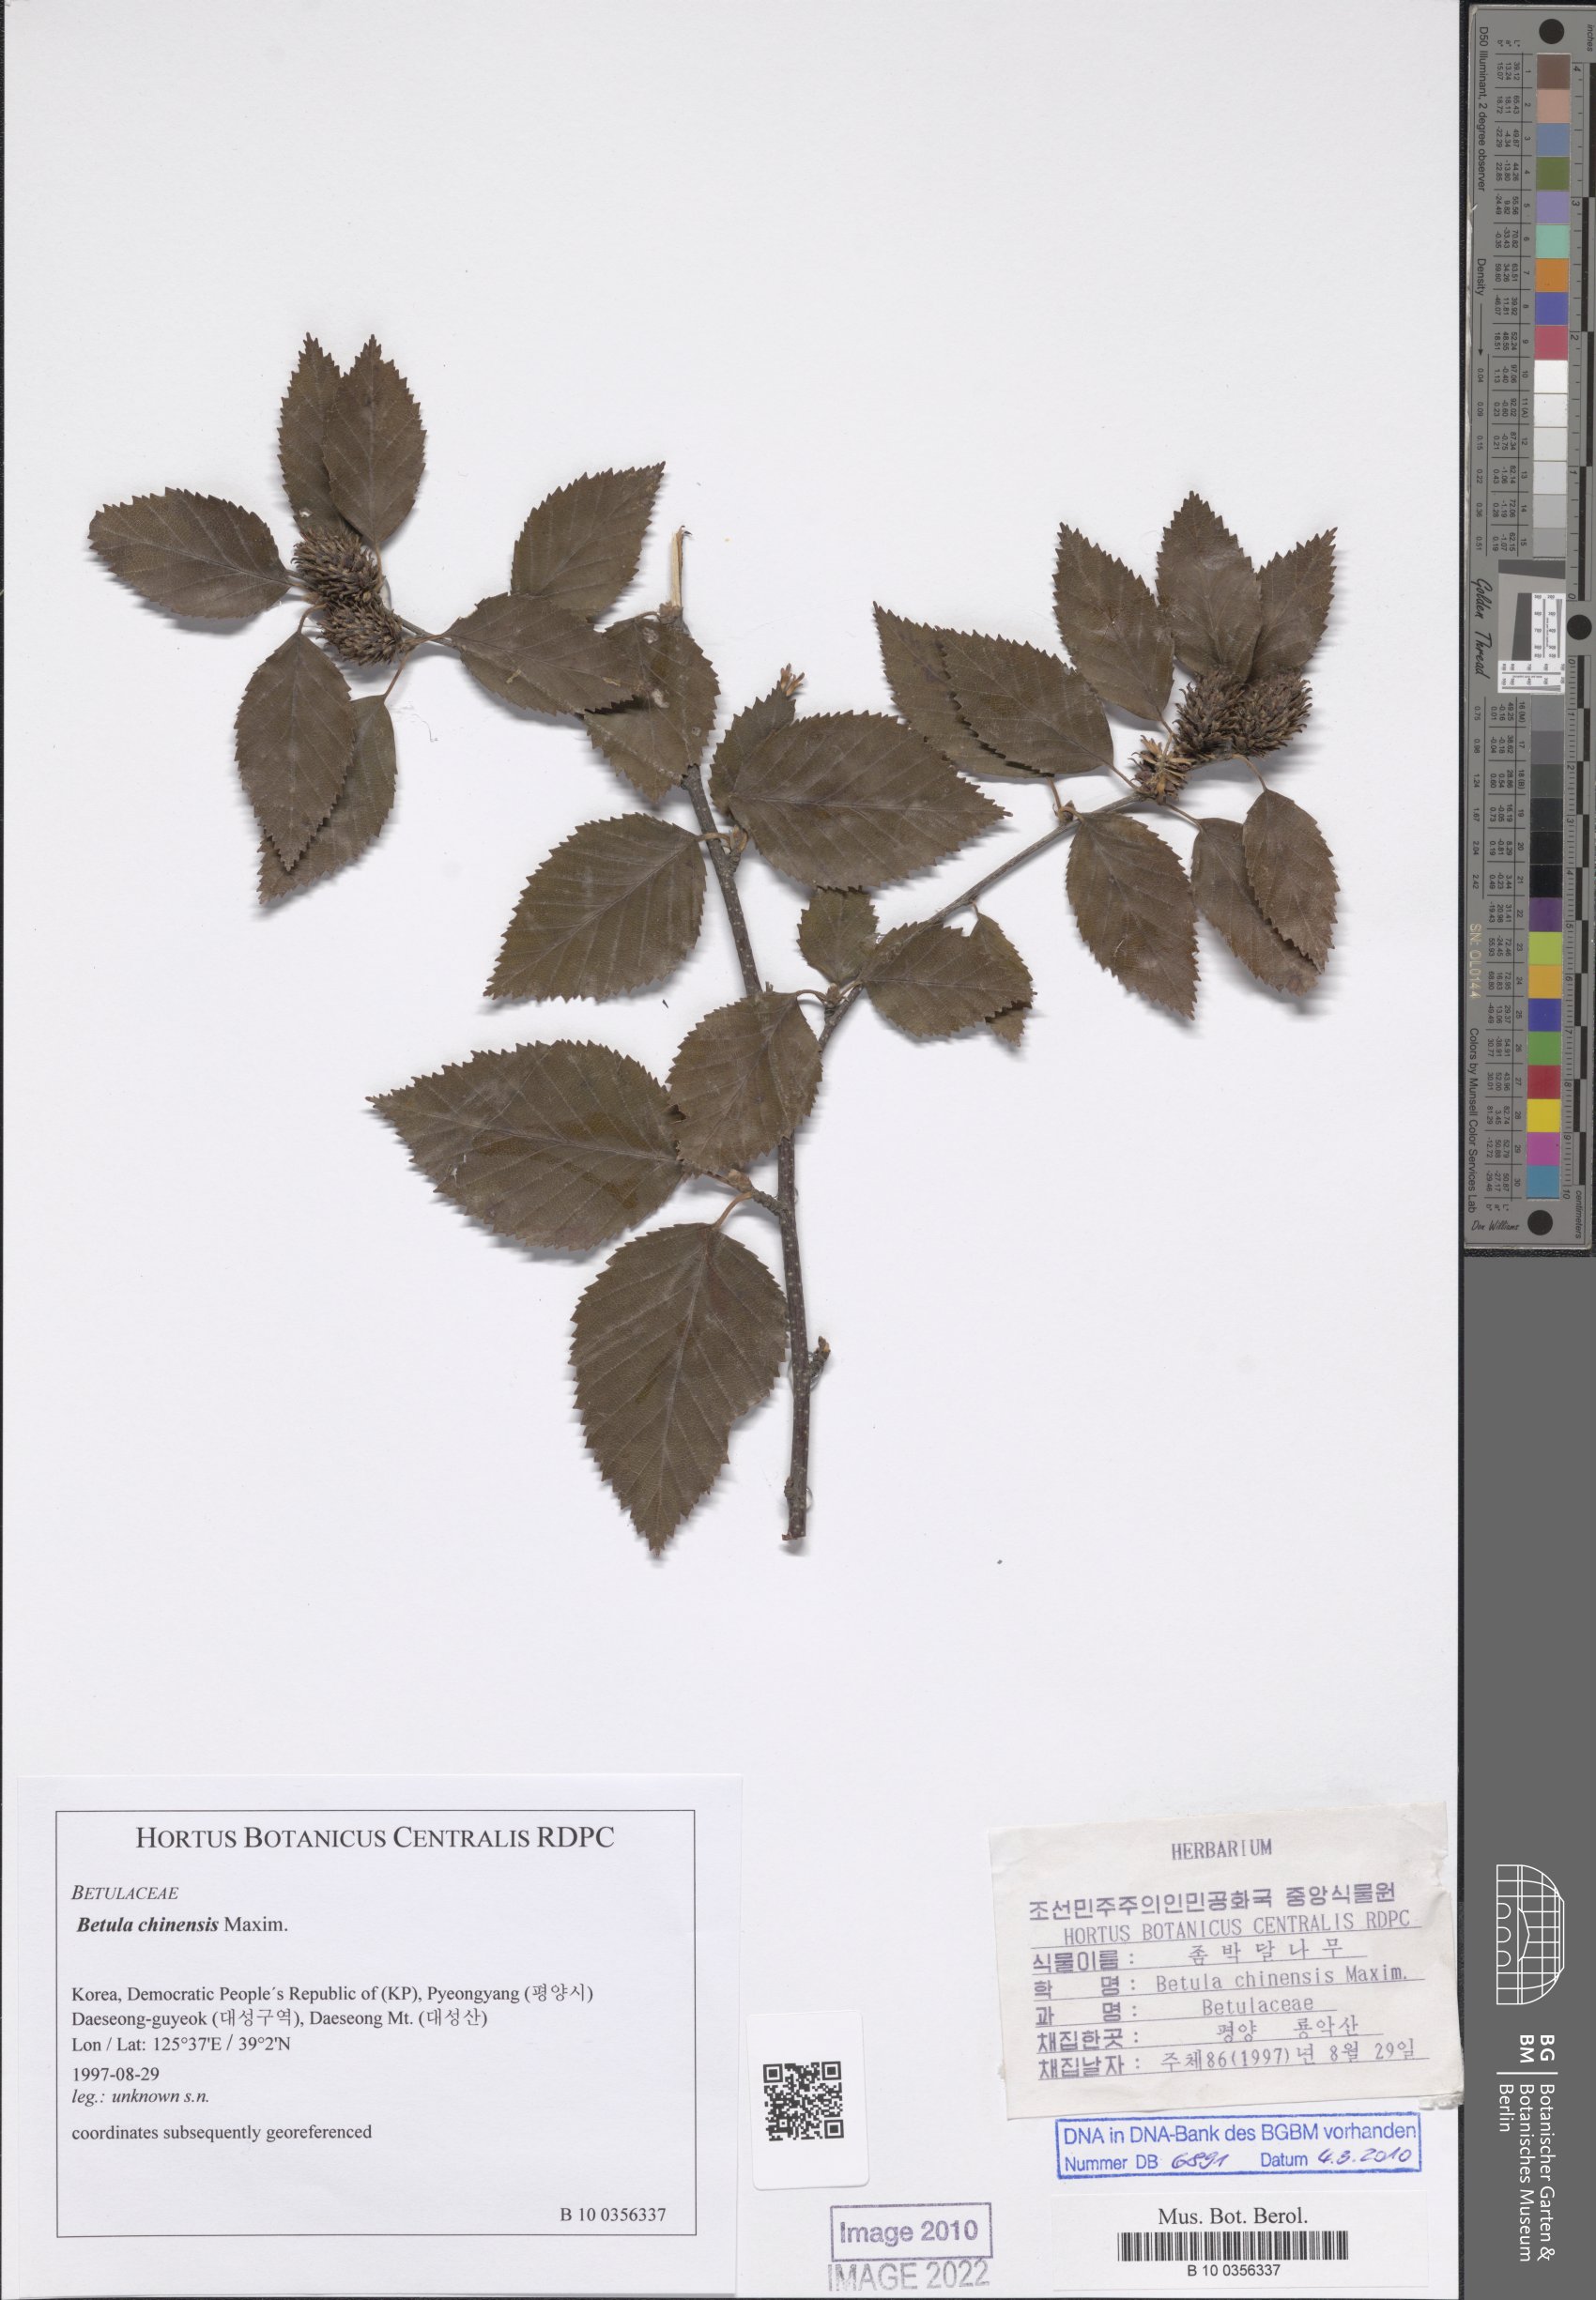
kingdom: Plantae
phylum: Tracheophyta
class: Magnoliopsida
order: Fagales
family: Betulaceae
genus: Betula
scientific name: Betula chinensis
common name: China birch
